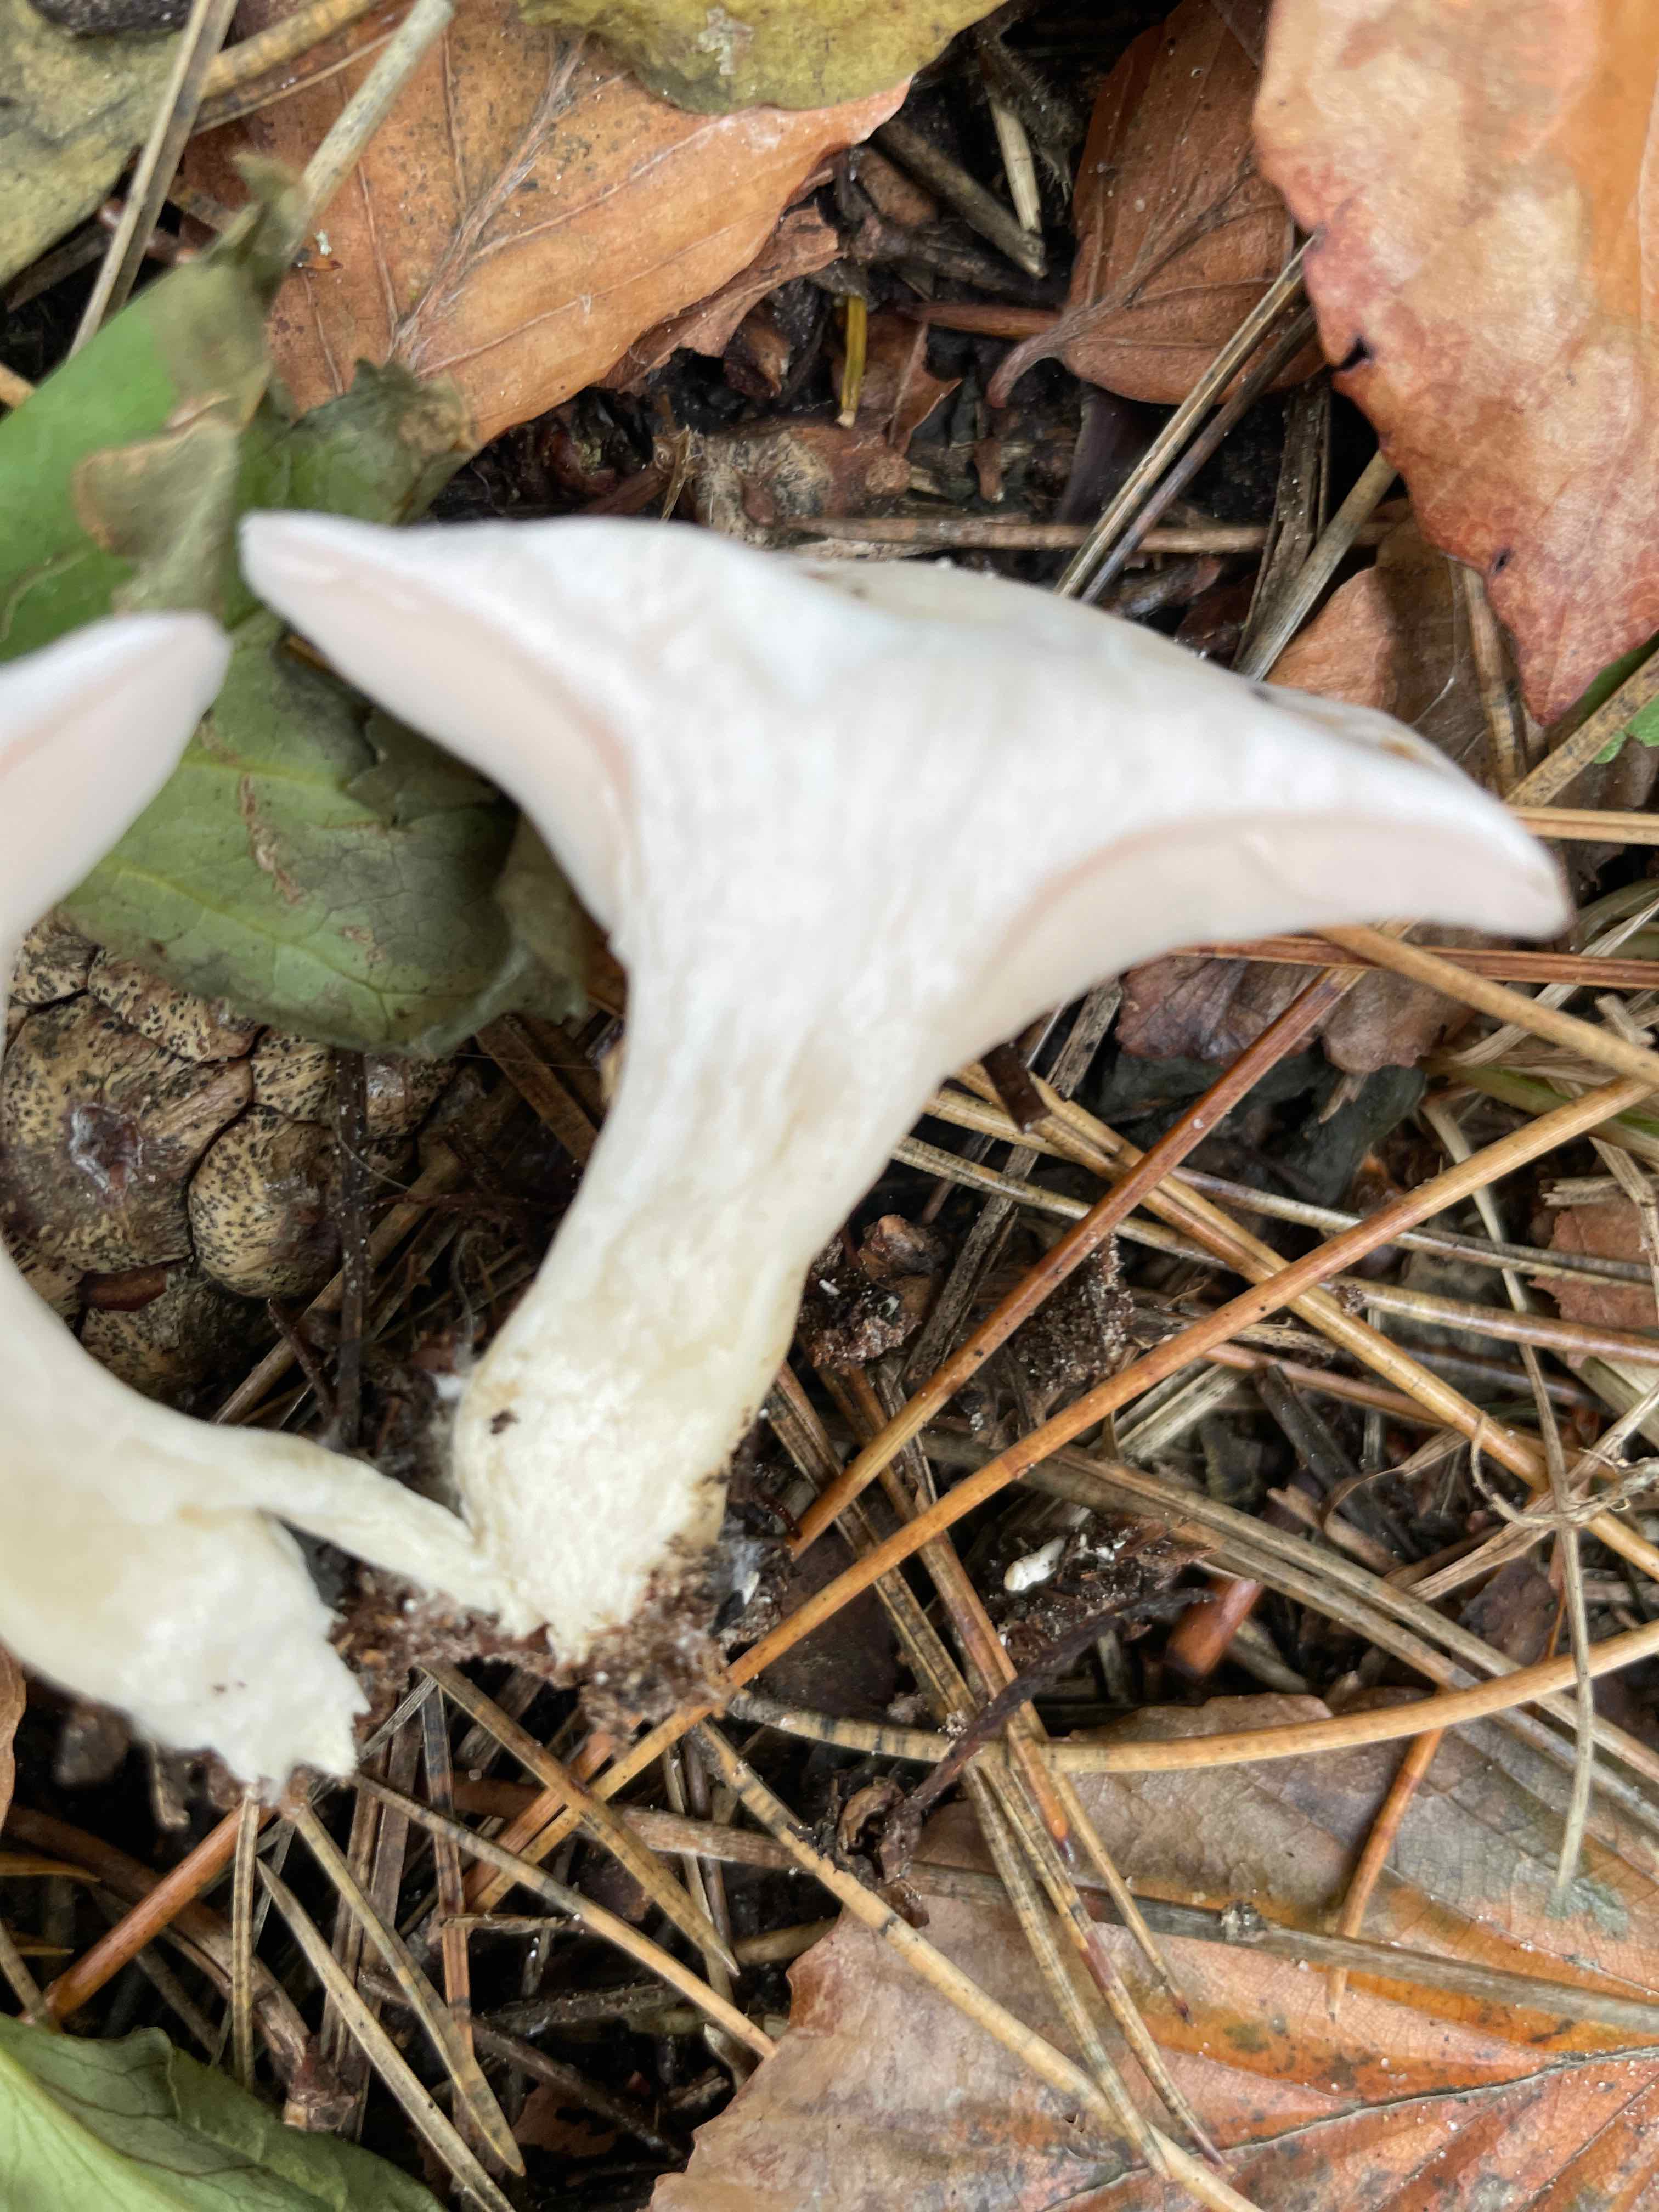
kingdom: Fungi
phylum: Basidiomycota
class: Agaricomycetes
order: Agaricales
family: Tricholomataceae
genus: Pseudoclitopilus
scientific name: Pseudoclitopilus rhodoleucus
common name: rosabladet tragtridderhat
